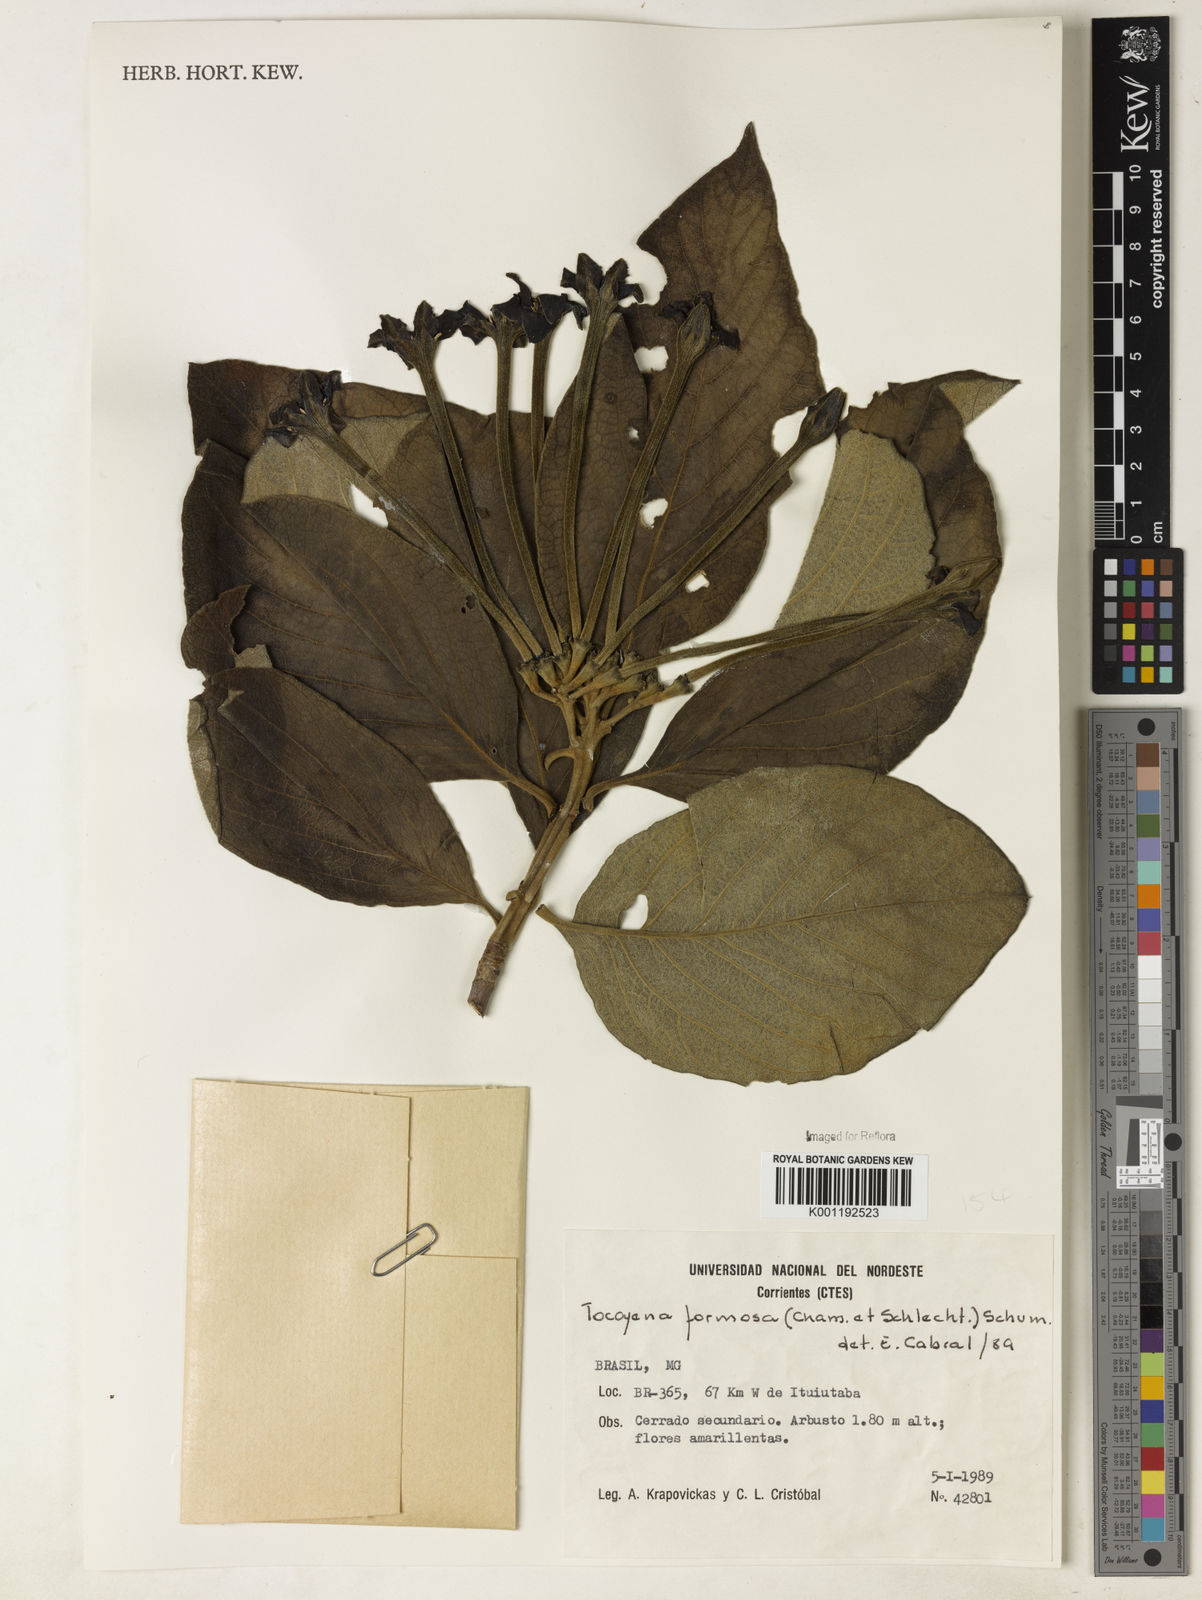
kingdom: Plantae
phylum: Tracheophyta
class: Magnoliopsida
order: Gentianales
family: Rubiaceae
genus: Tocoyena
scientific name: Tocoyena formosa
